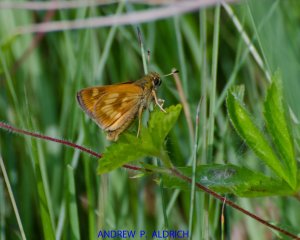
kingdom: Animalia
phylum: Arthropoda
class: Insecta
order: Lepidoptera
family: Hesperiidae
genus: Polites
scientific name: Polites
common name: Long Dash Skipper
